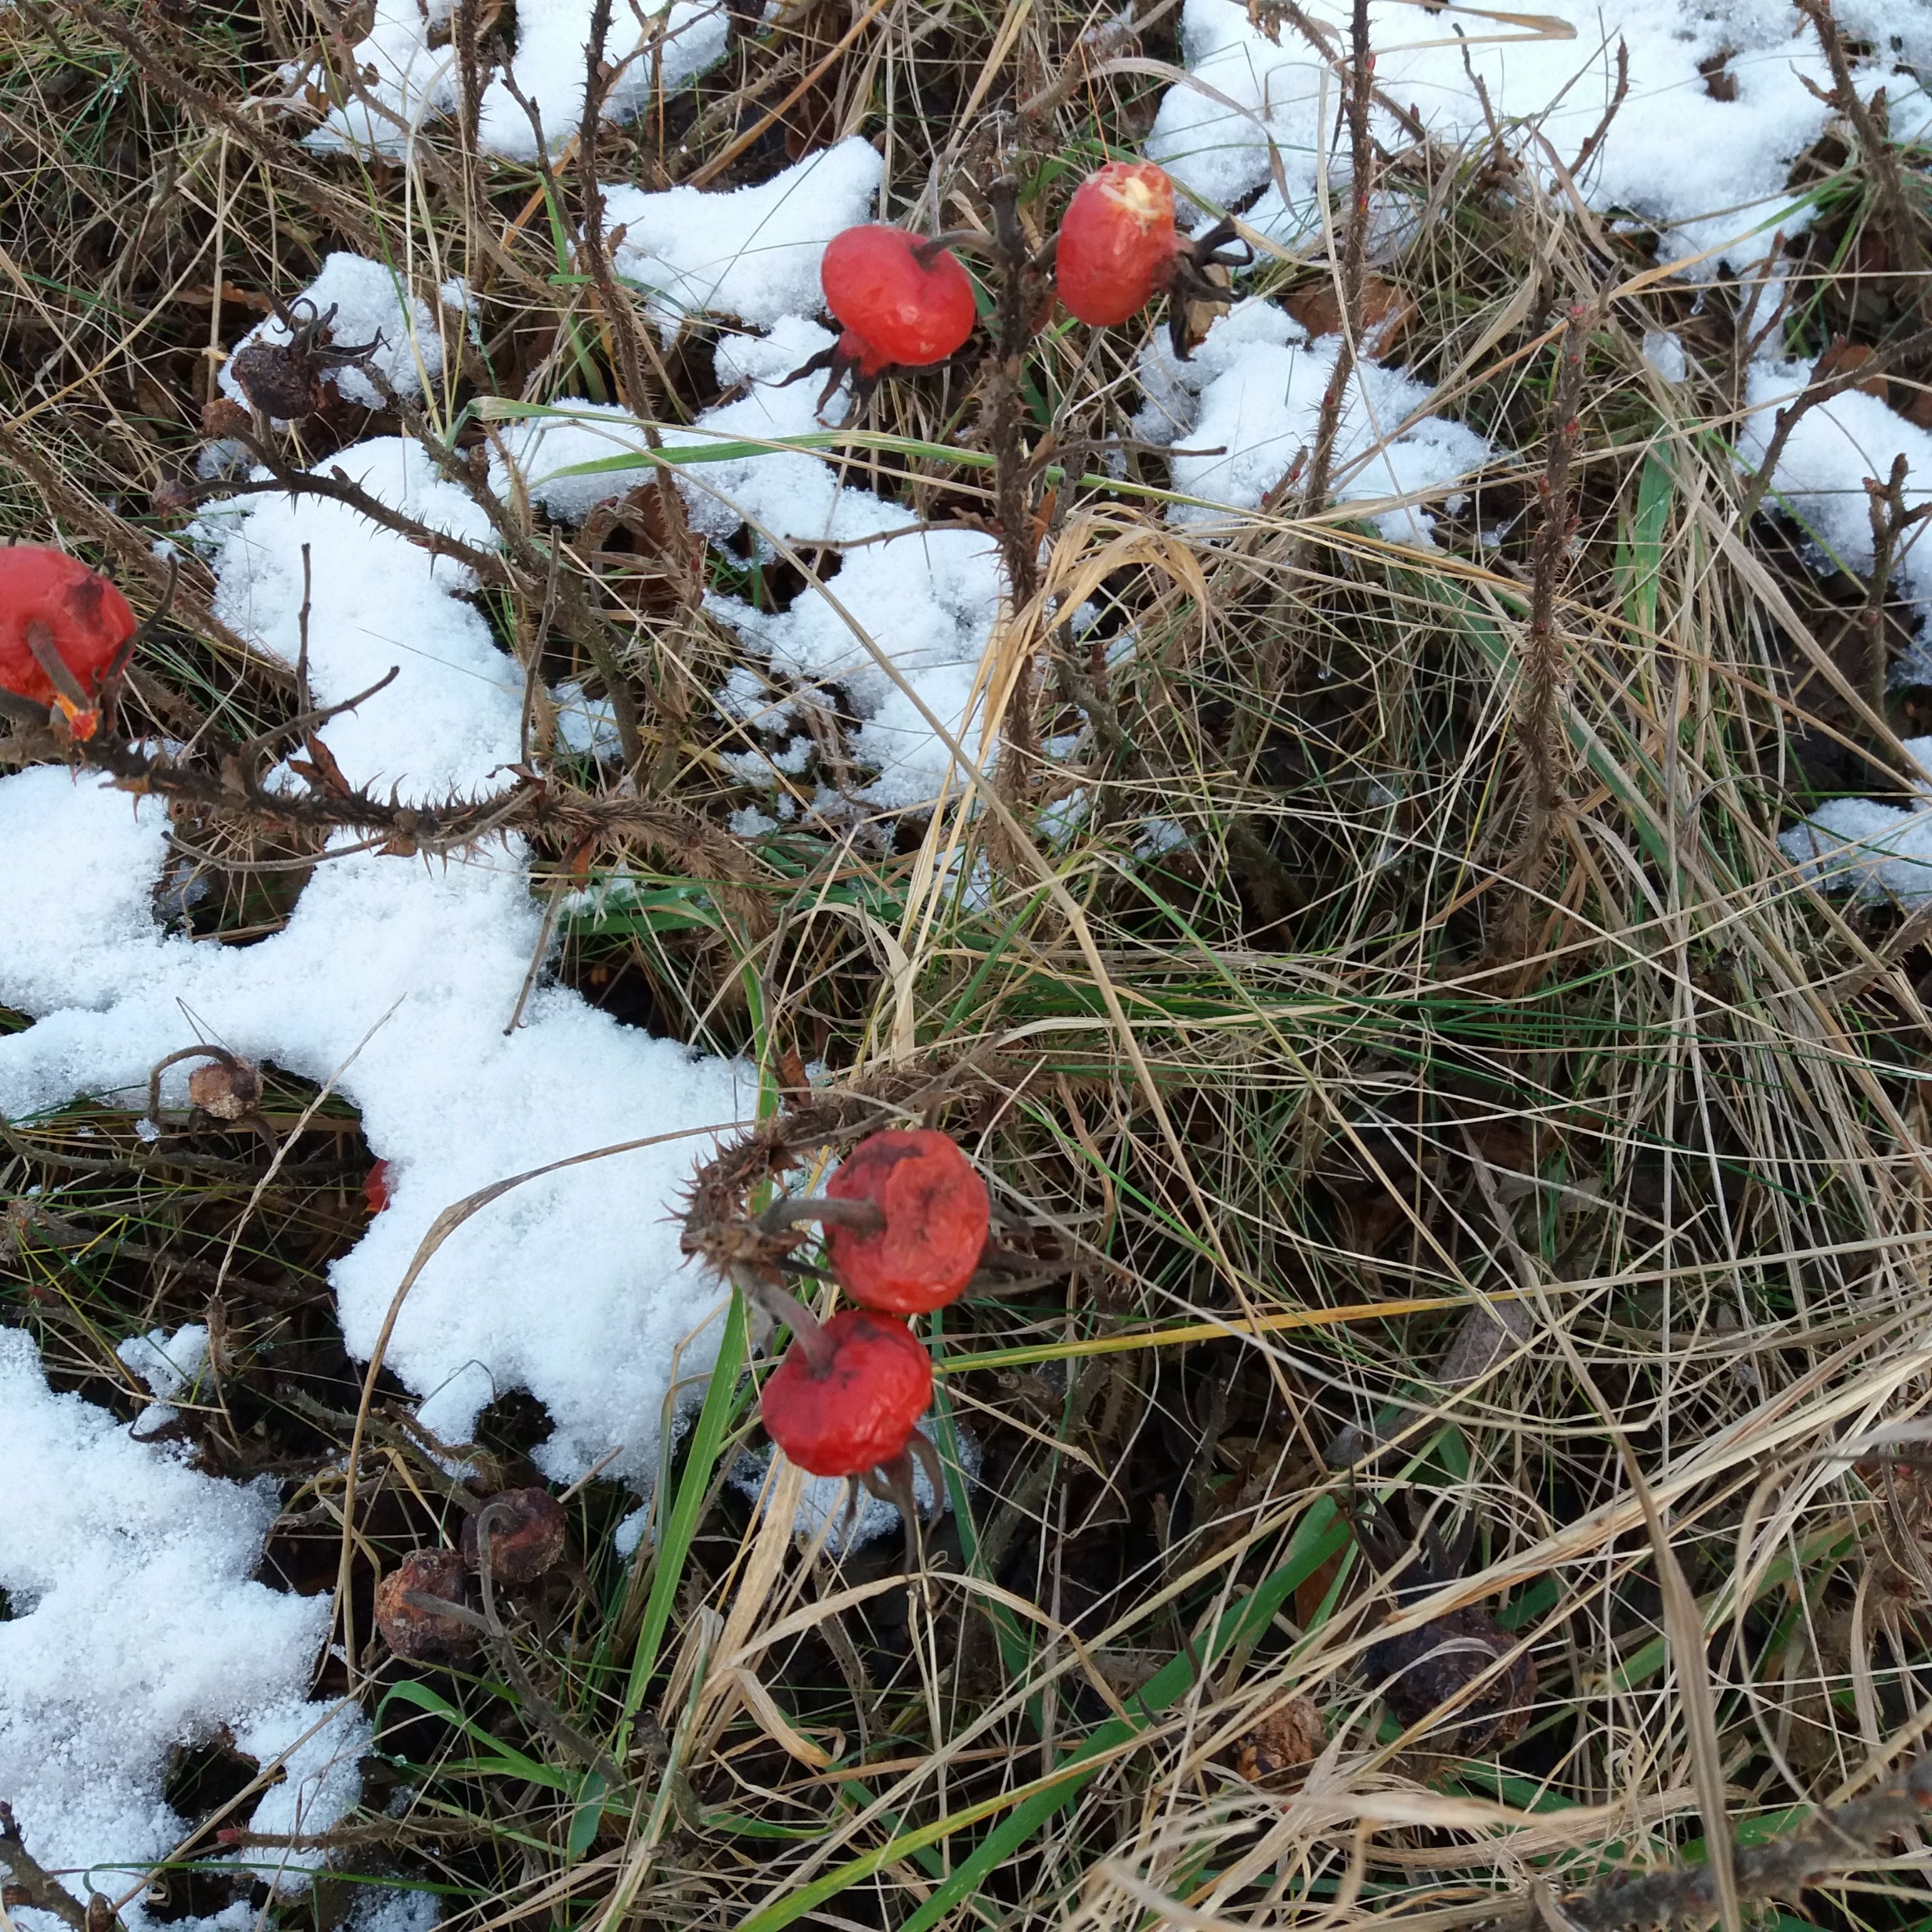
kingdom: Plantae
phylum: Tracheophyta
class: Magnoliopsida
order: Rosales
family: Rosaceae
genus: Rosa
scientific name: Rosa rugosa
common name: Rynket rose
